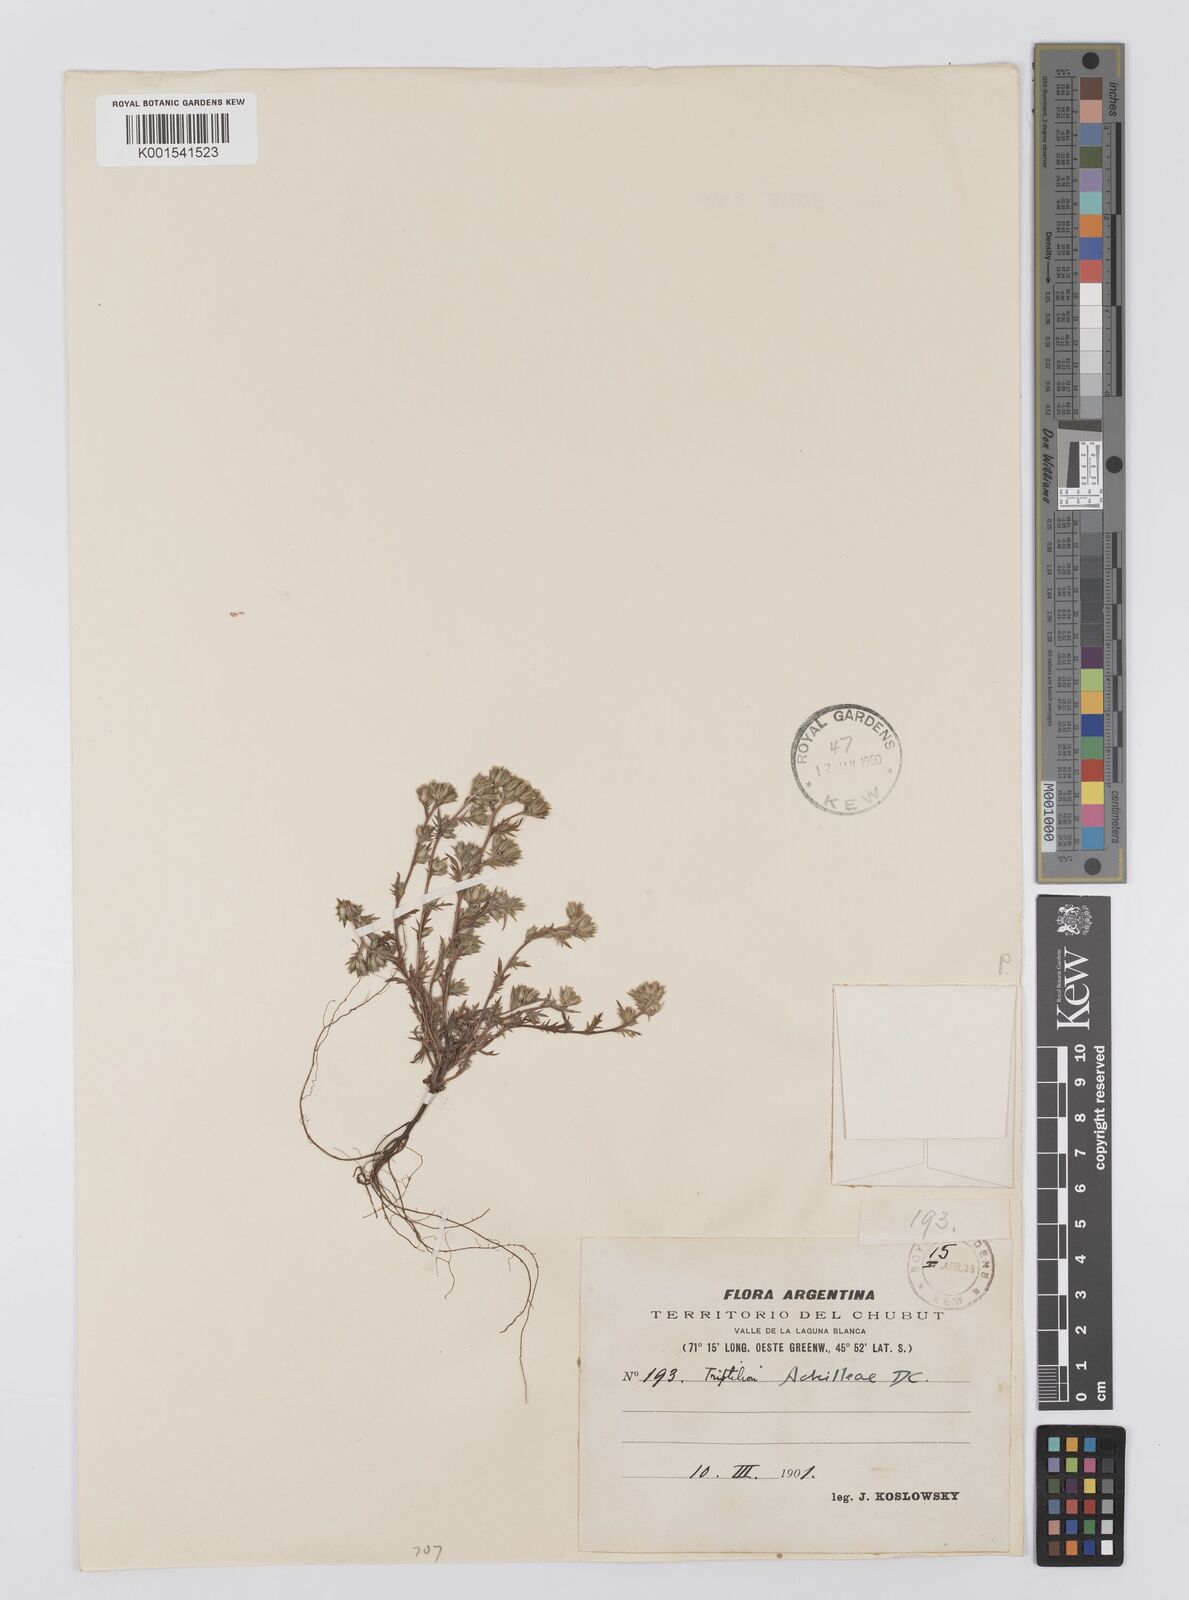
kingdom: Plantae
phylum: Tracheophyta
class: Magnoliopsida
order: Asterales
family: Asteraceae
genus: Triptilion
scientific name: Triptilion achilleae
